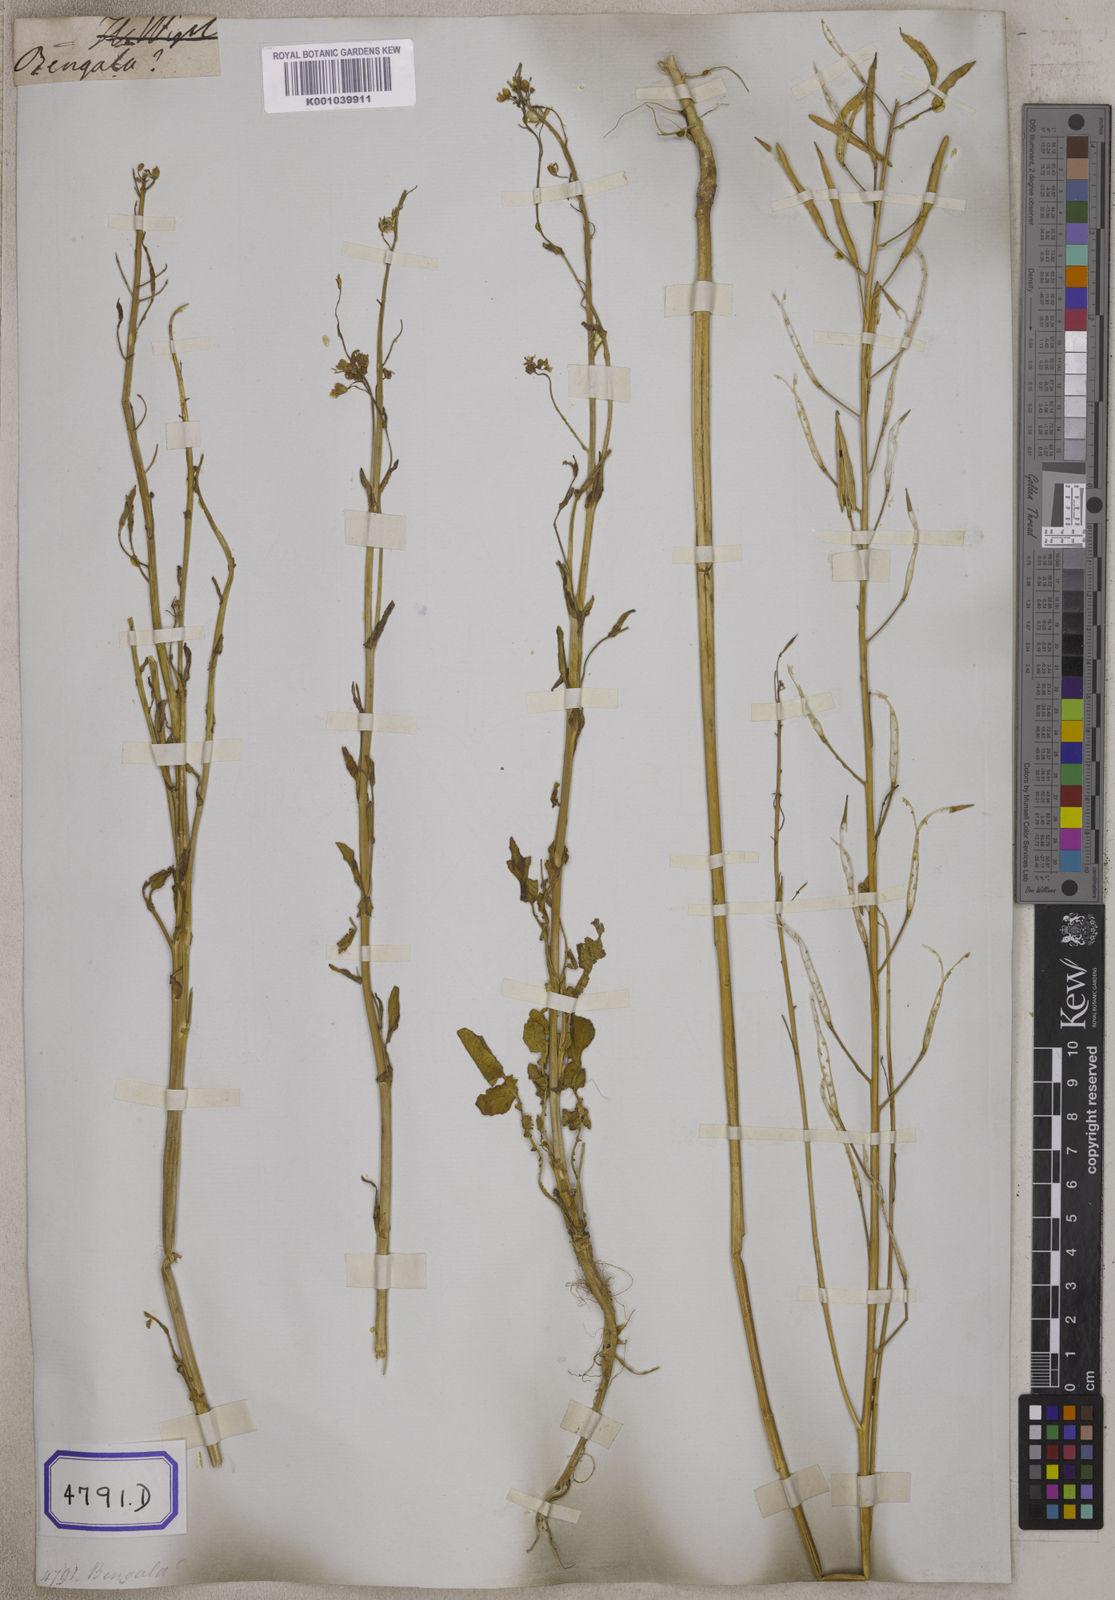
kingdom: Plantae
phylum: Tracheophyta
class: Magnoliopsida
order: Brassicales
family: Brassicaceae
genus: Brassica
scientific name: Brassica rapa
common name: Field mustard
